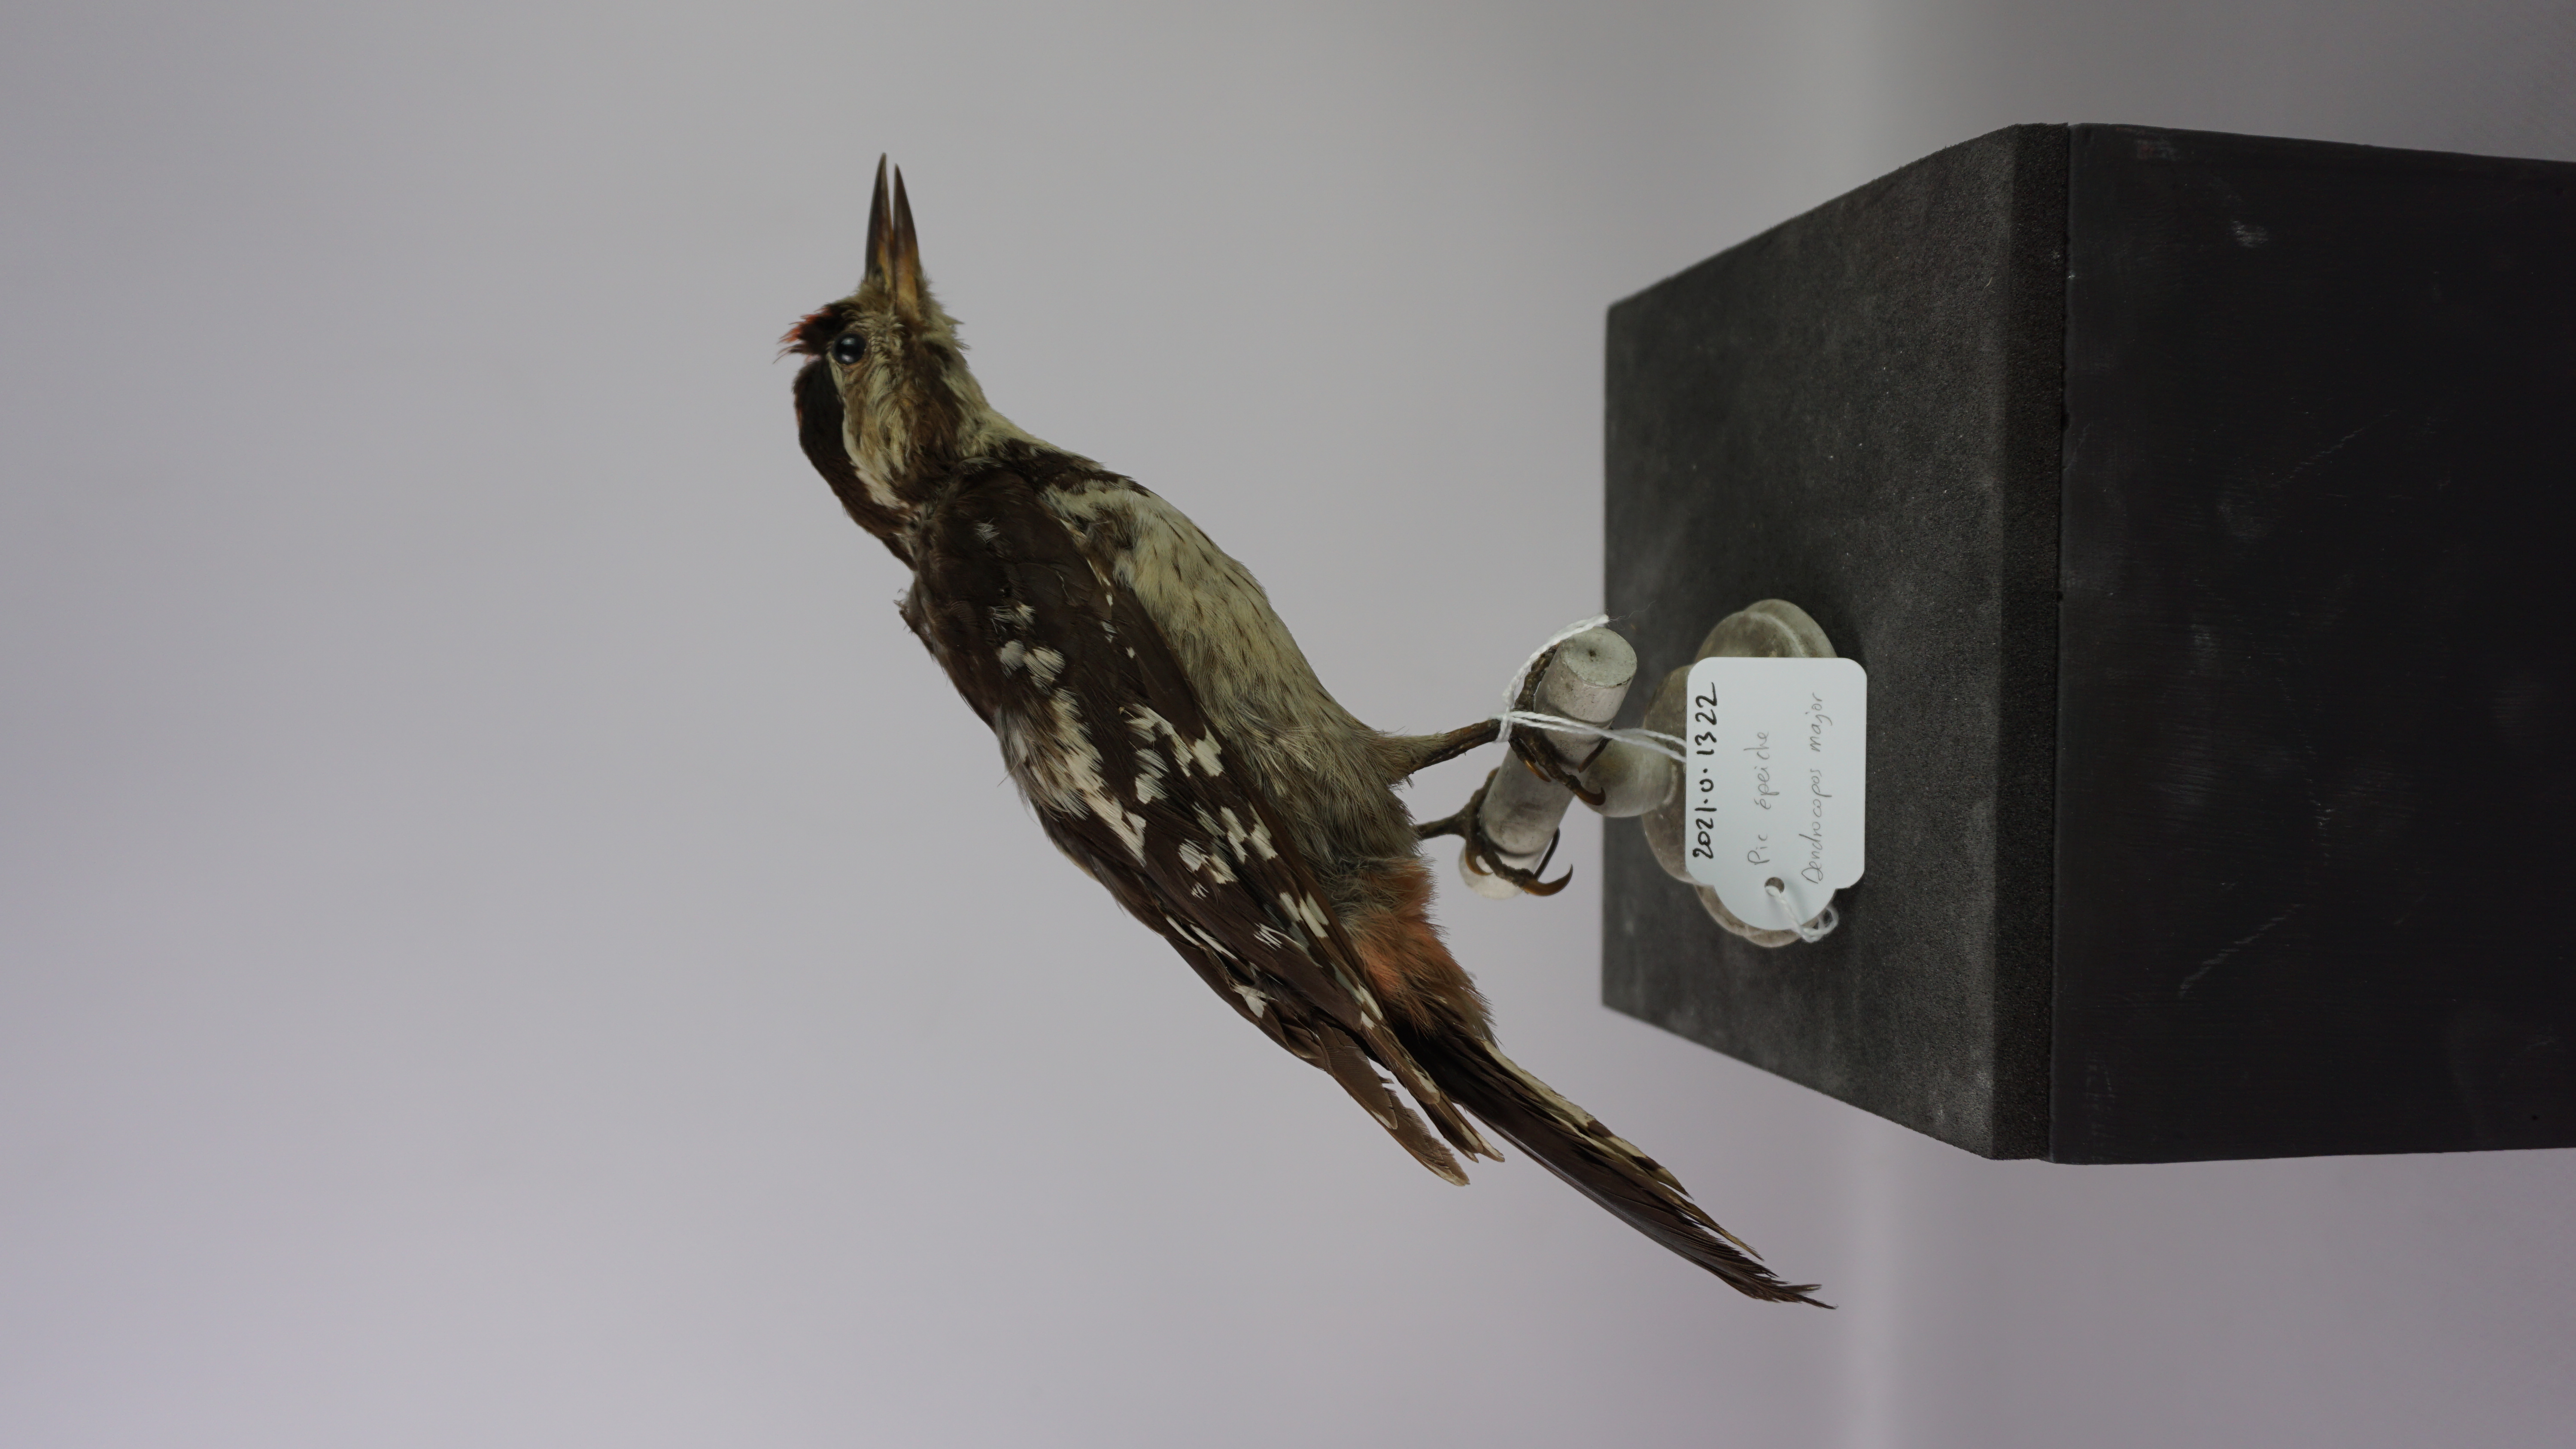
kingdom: Animalia
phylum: Chordata
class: Aves
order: Piciformes
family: Picidae
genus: Dendrocopos
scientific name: Dendrocopos major
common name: Great spotted woodpecker
